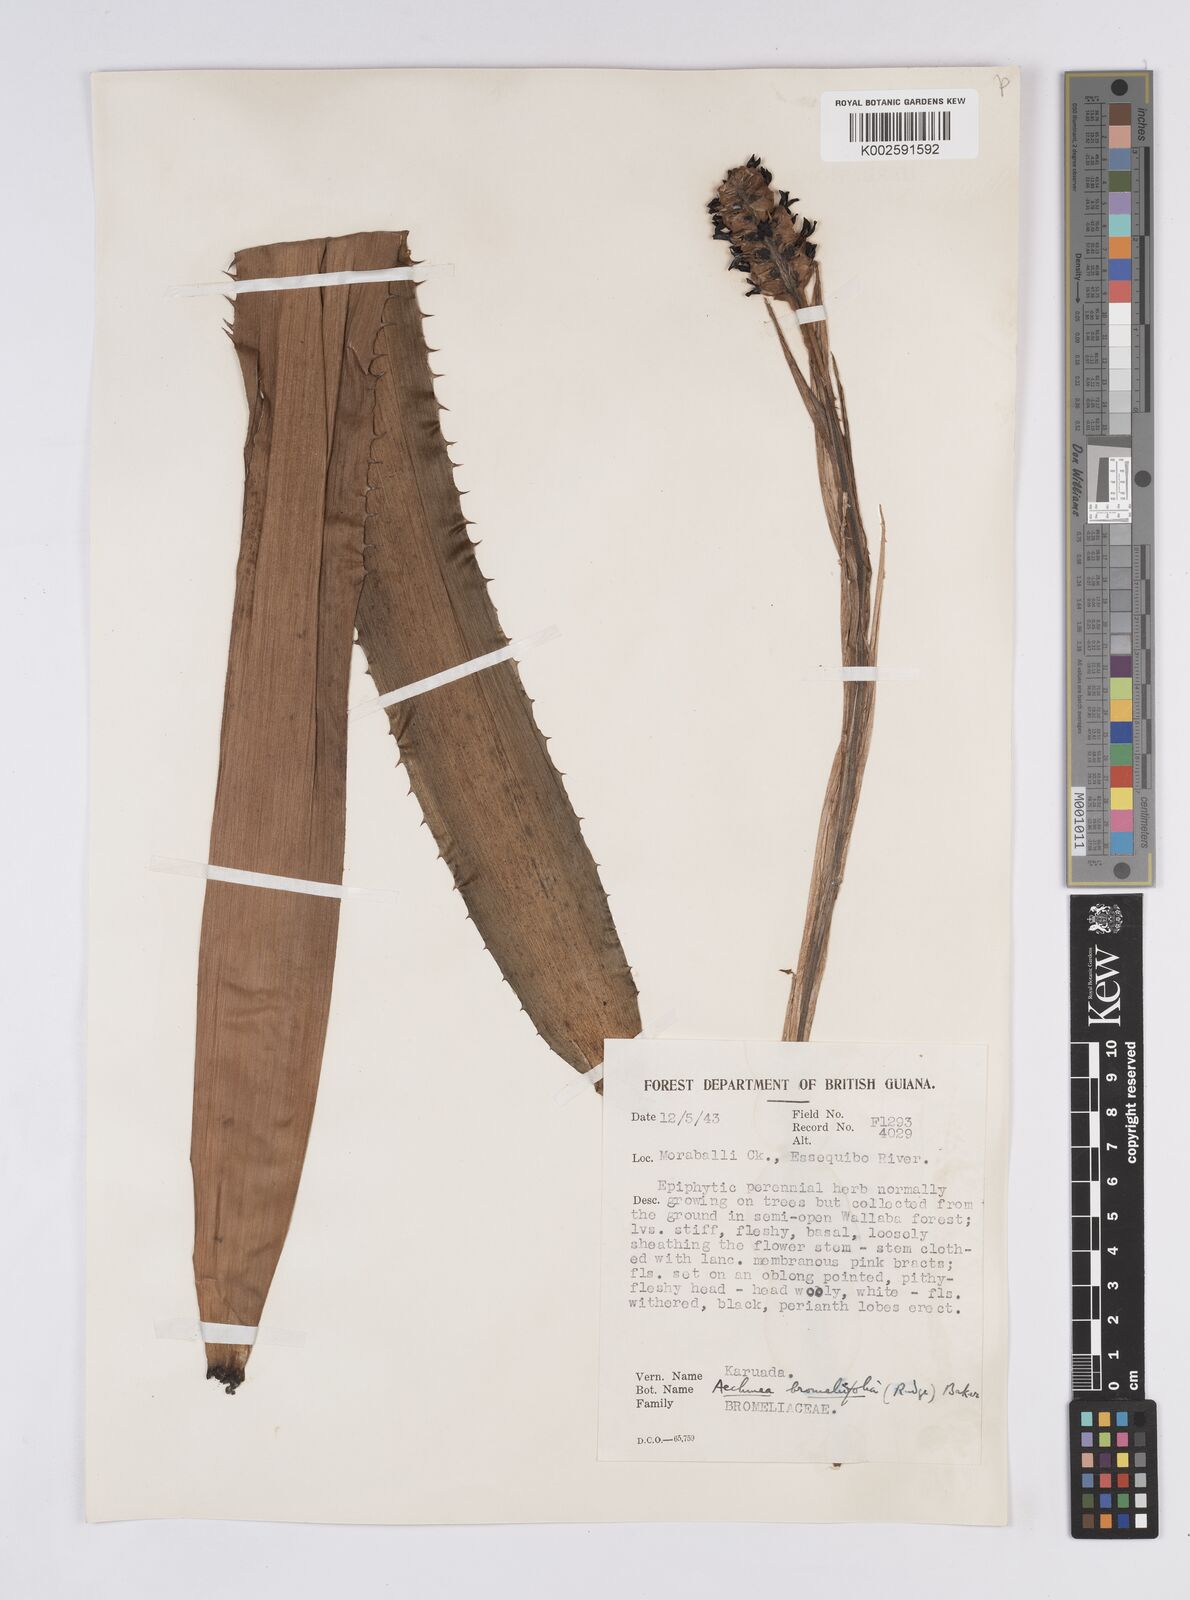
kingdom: Plantae
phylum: Tracheophyta
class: Liliopsida
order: Poales
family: Bromeliaceae
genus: Aechmea
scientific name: Aechmea bromeliifolia
